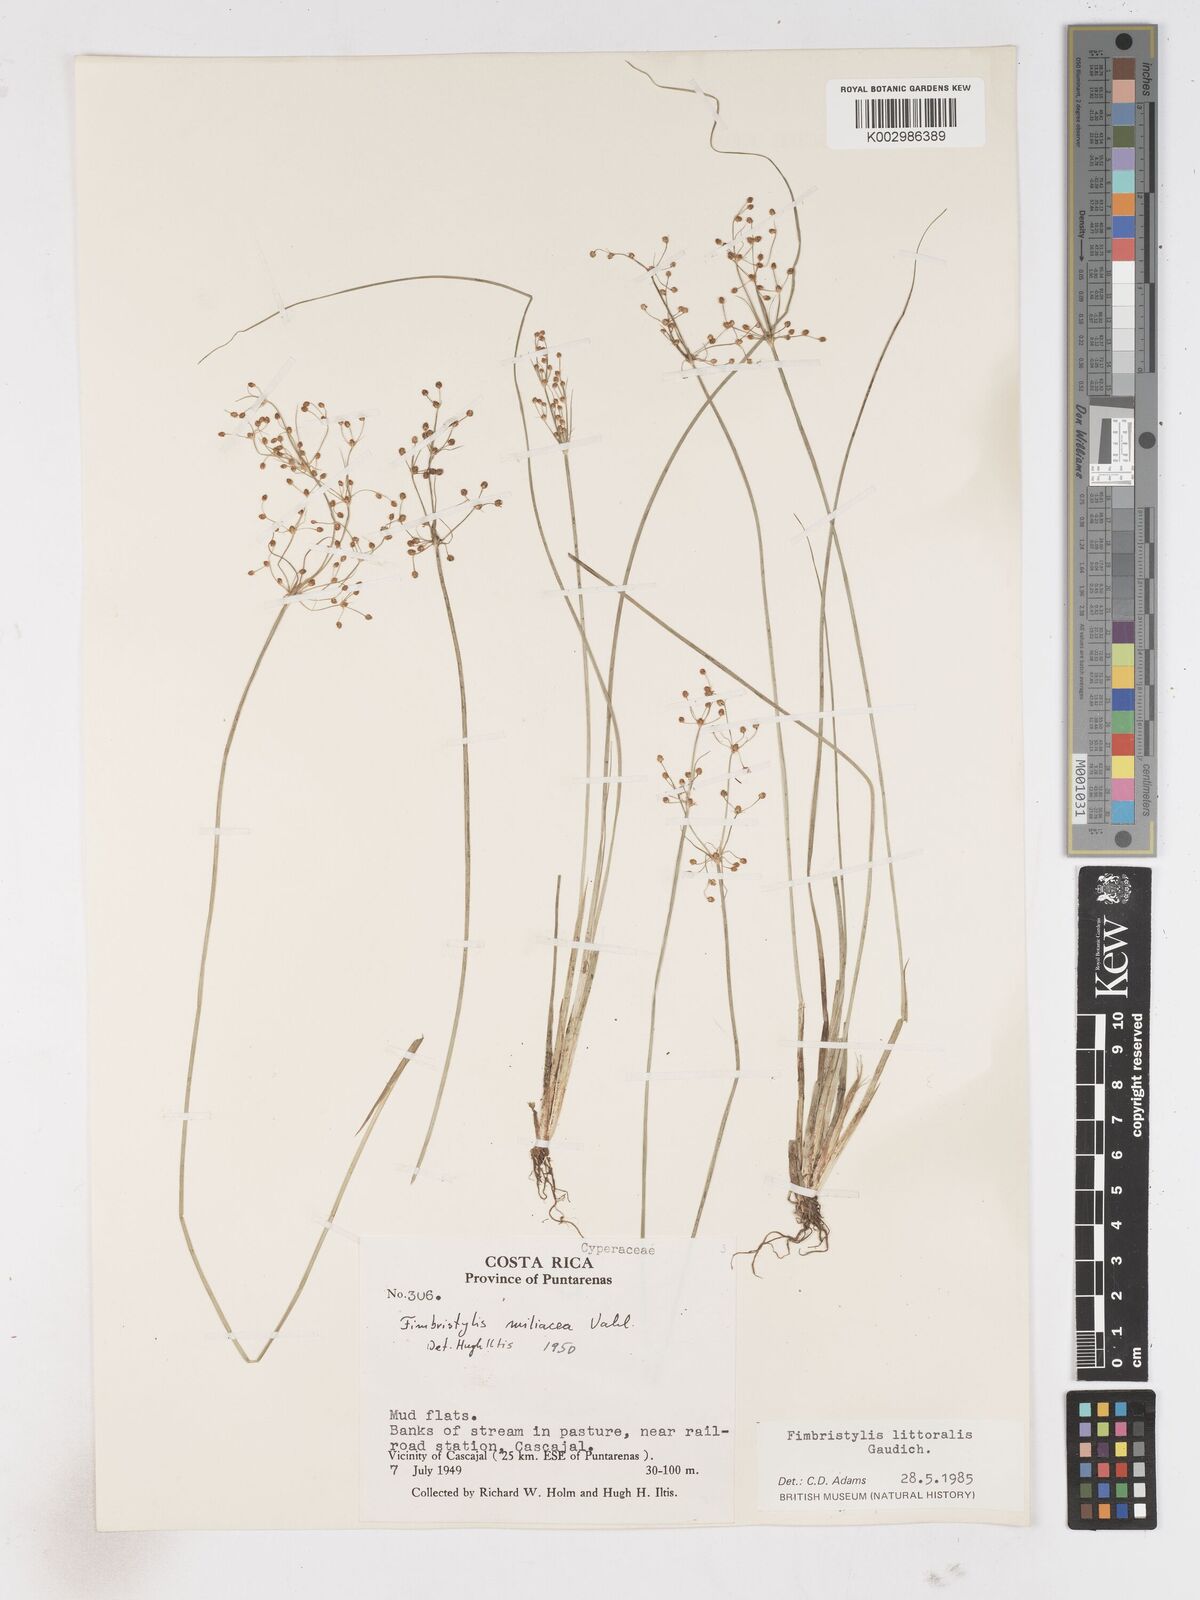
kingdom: Plantae
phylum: Tracheophyta
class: Liliopsida
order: Poales
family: Cyperaceae
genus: Fimbristylis
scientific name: Fimbristylis littoralis
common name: Fimbry
